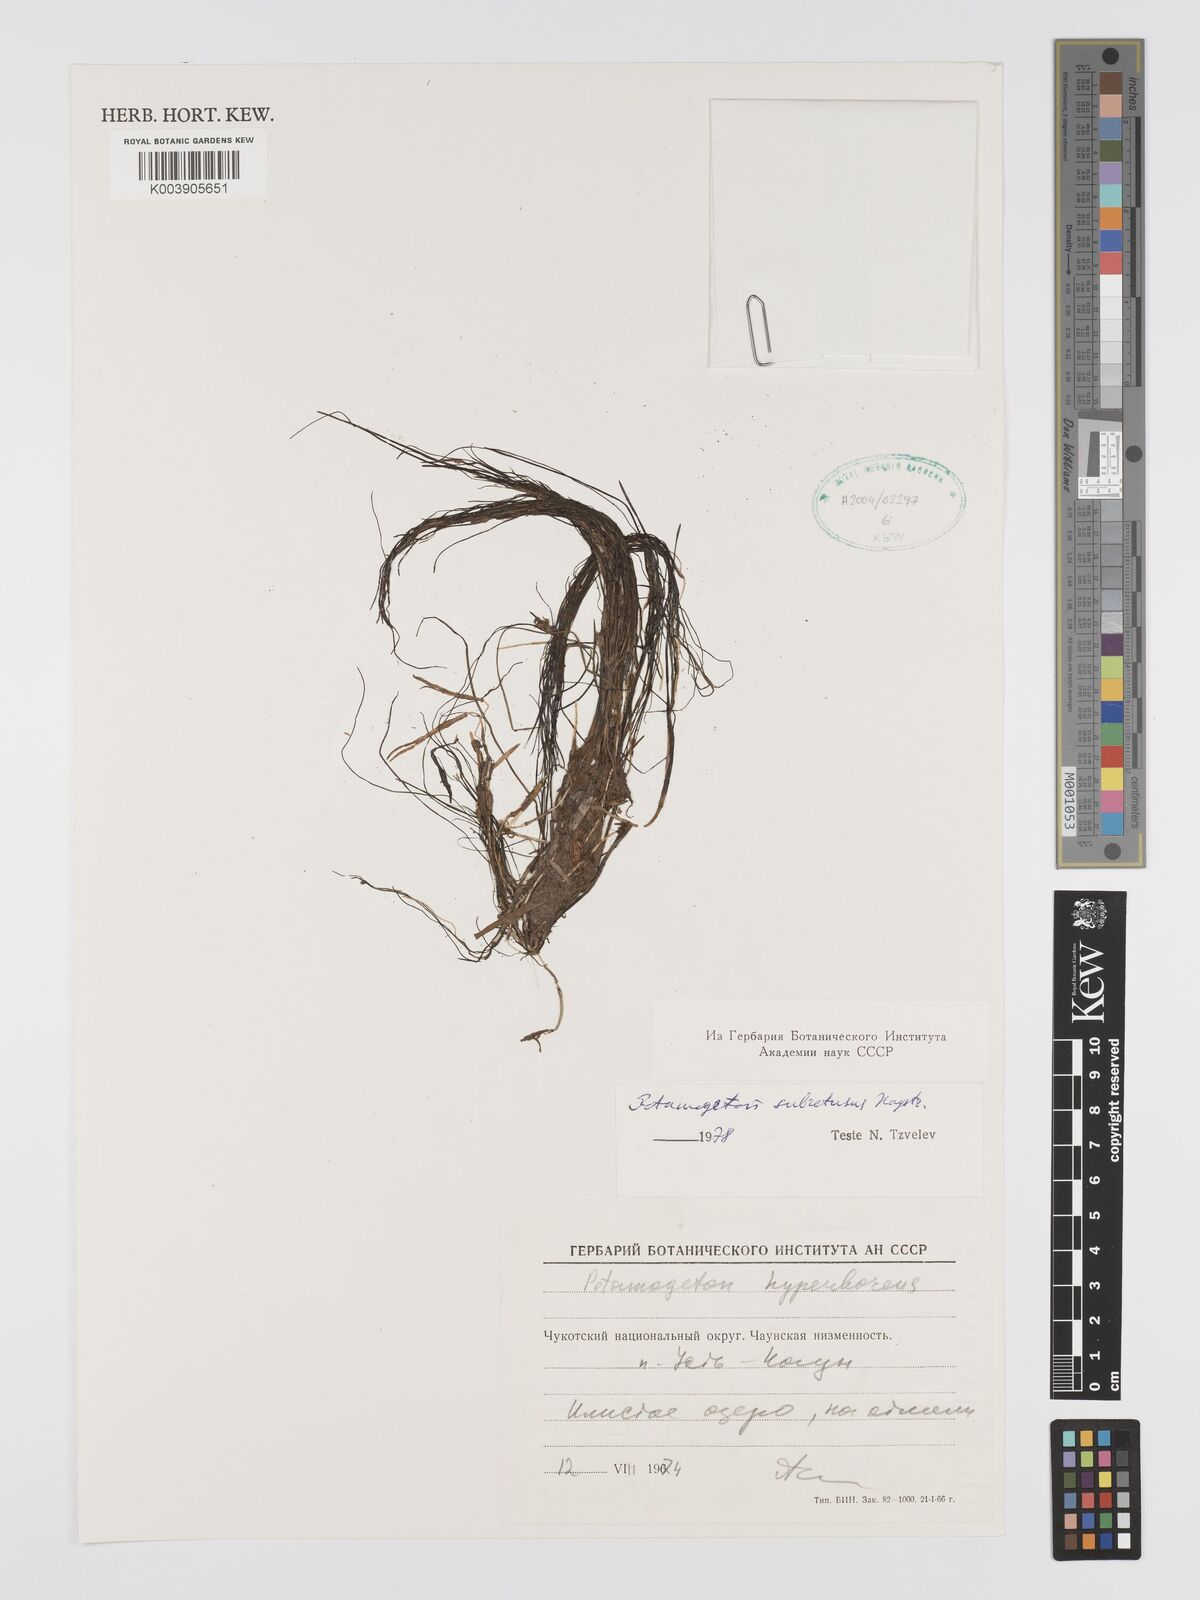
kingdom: Plantae
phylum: Tracheophyta
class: Liliopsida
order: Alismatales
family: Potamogetonaceae
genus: Stuckenia
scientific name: Stuckenia vaginata
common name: Big-sheathed pondweed
